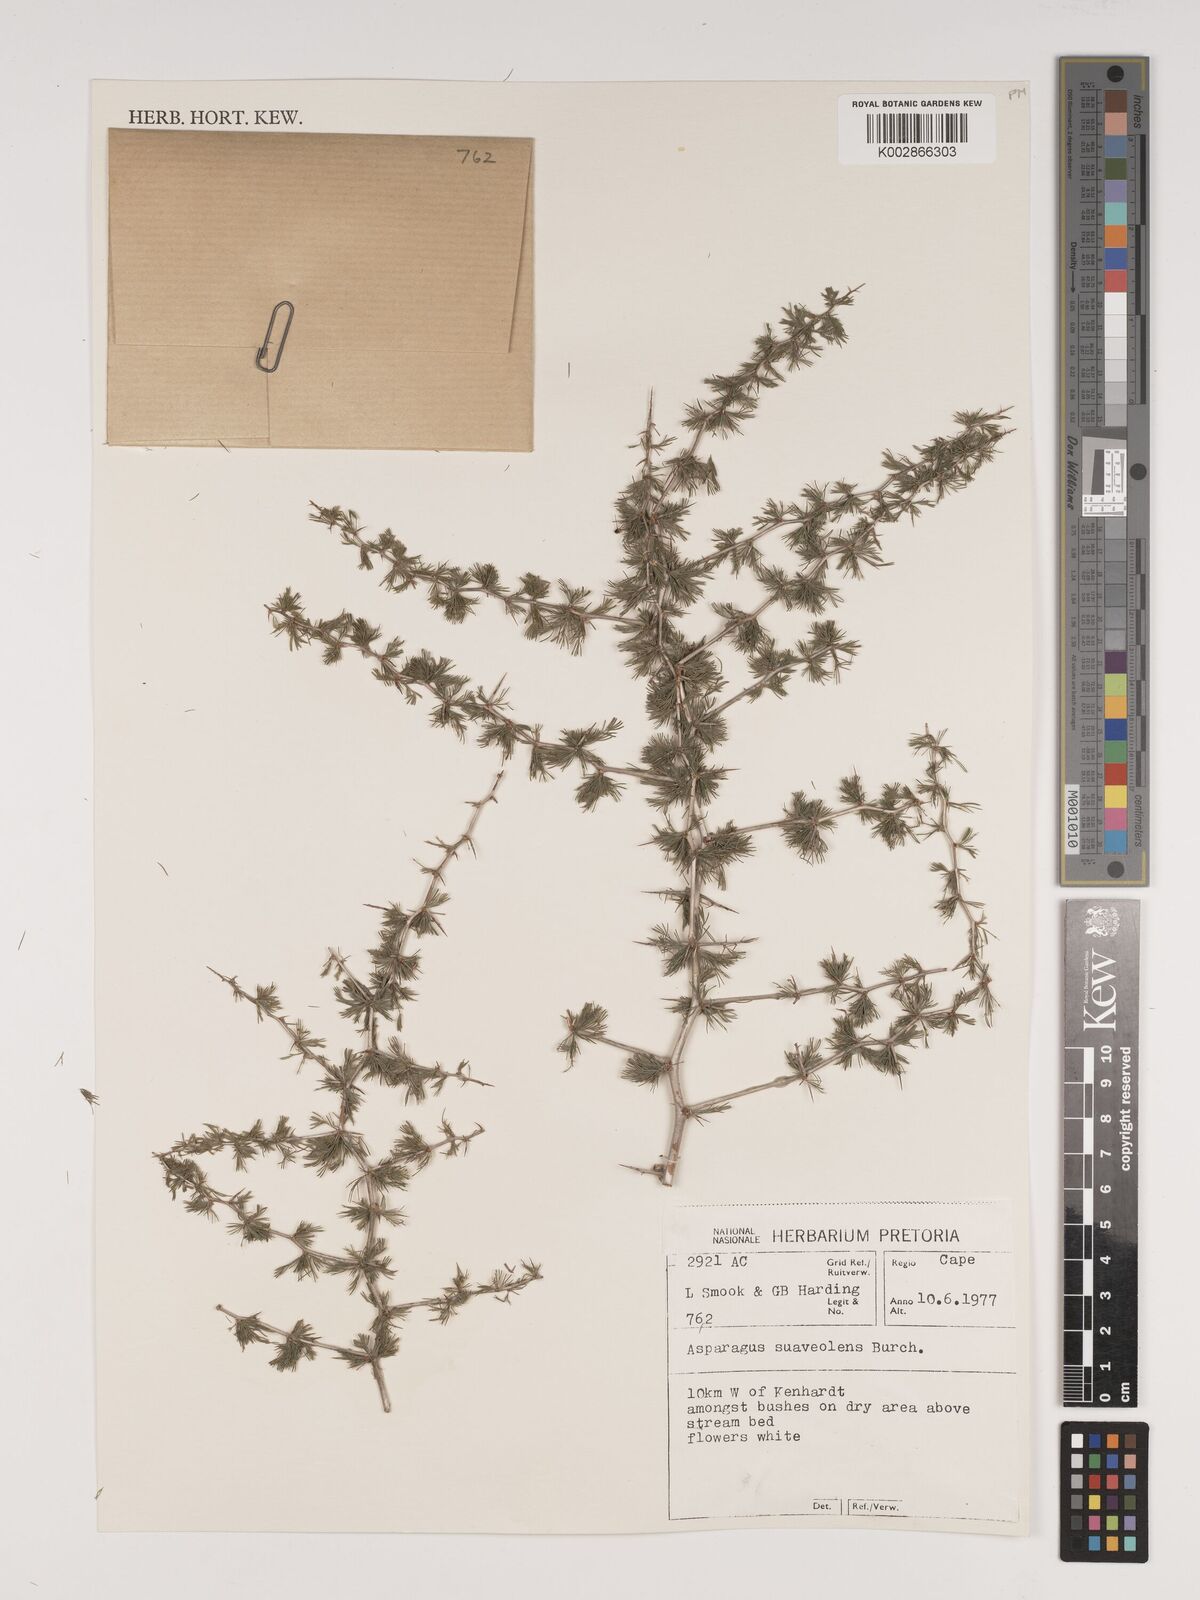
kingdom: Plantae
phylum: Tracheophyta
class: Liliopsida
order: Asparagales
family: Asparagaceae
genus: Asparagus
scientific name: Asparagus suaveolens
